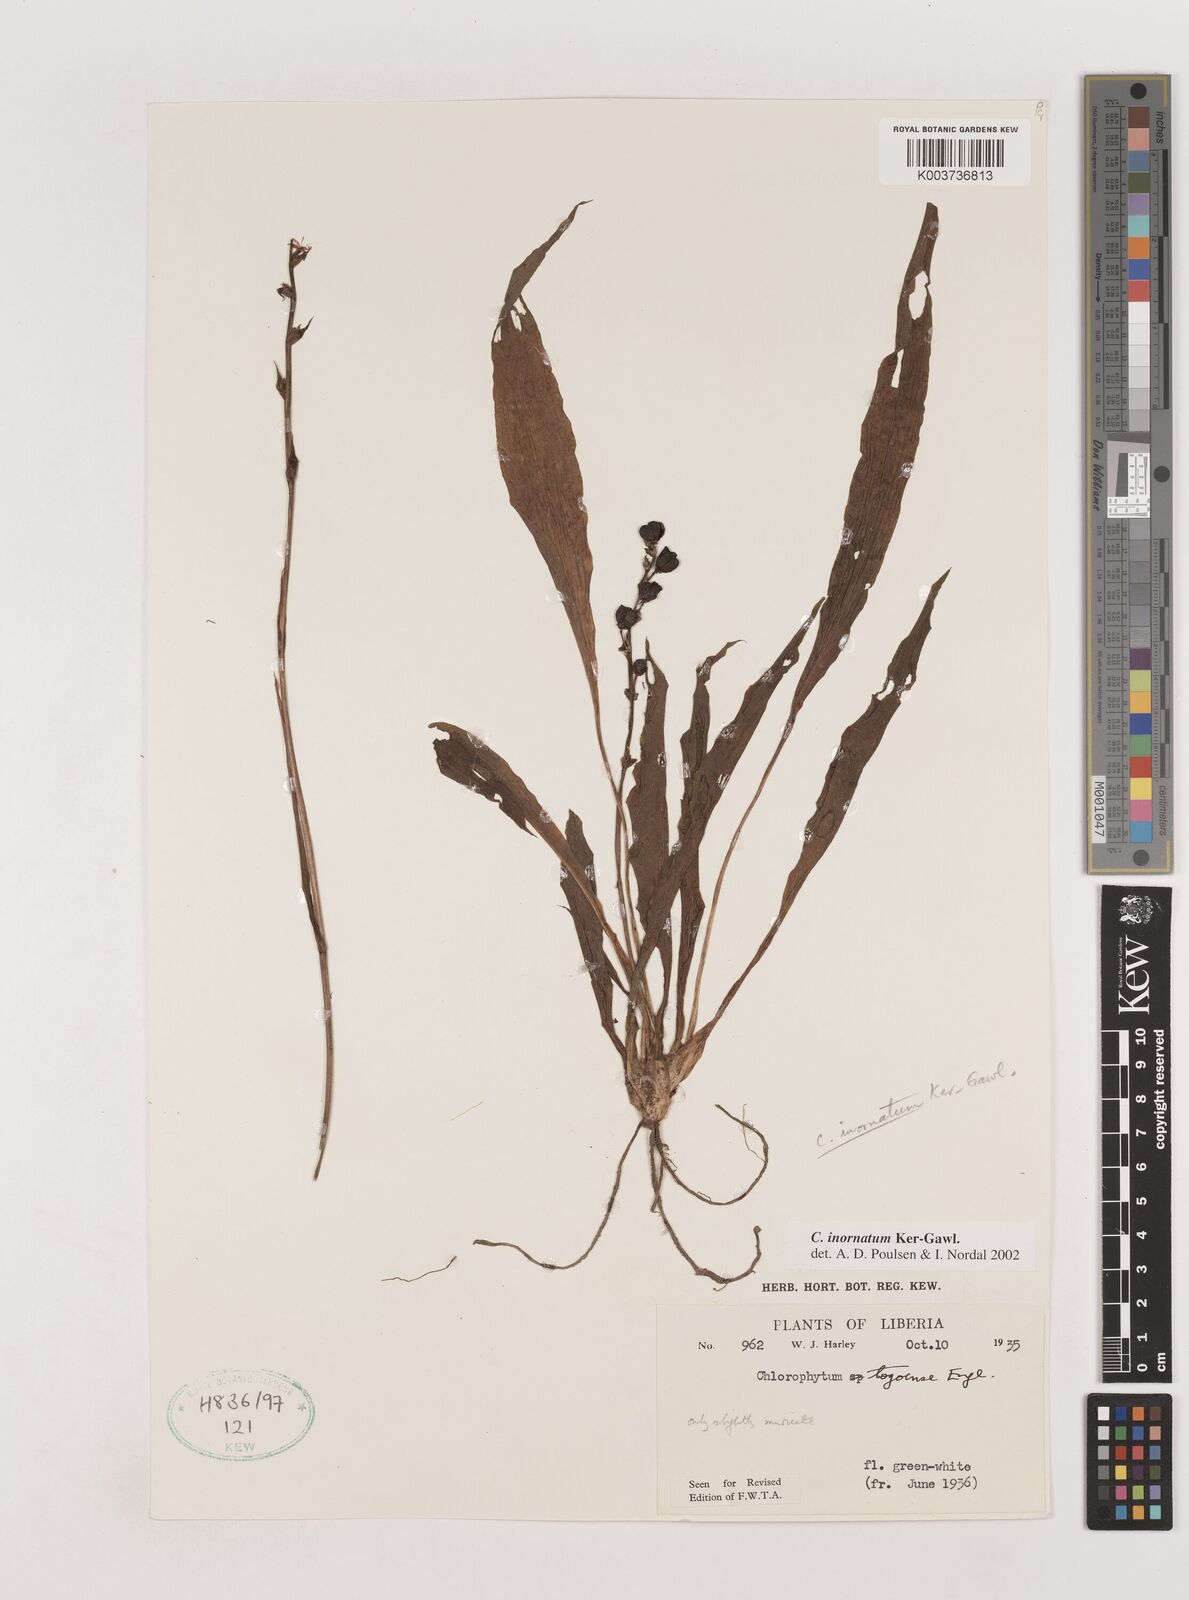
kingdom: Plantae
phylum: Tracheophyta
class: Liliopsida
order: Asparagales
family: Asparagaceae
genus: Chlorophytum
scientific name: Chlorophytum inornatum
